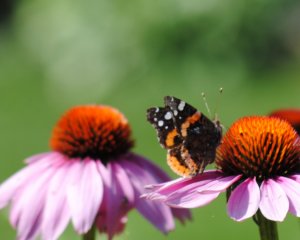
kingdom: Animalia
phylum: Arthropoda
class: Insecta
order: Lepidoptera
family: Nymphalidae
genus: Vanessa
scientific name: Vanessa atalanta
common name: Red Admiral
